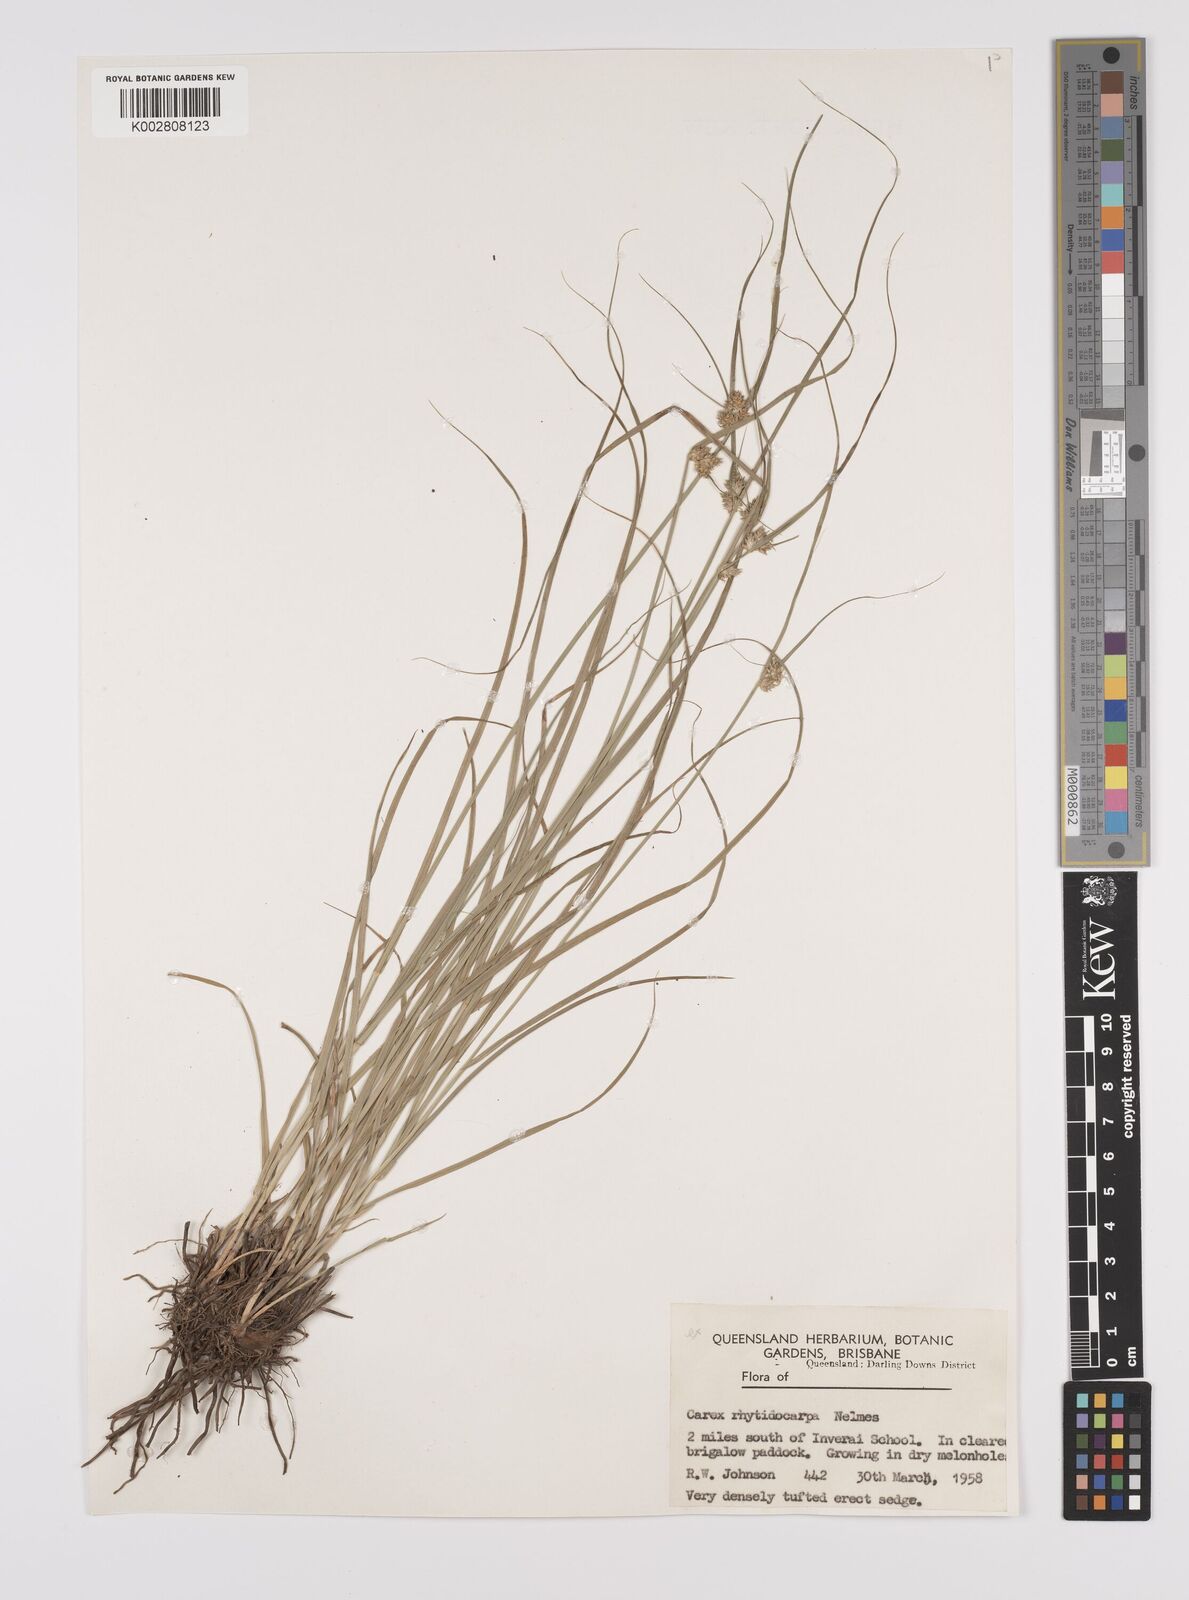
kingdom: Plantae
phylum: Tracheophyta
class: Liliopsida
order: Poales
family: Cyperaceae
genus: Carex
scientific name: Carex inversa
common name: Knob sedge
